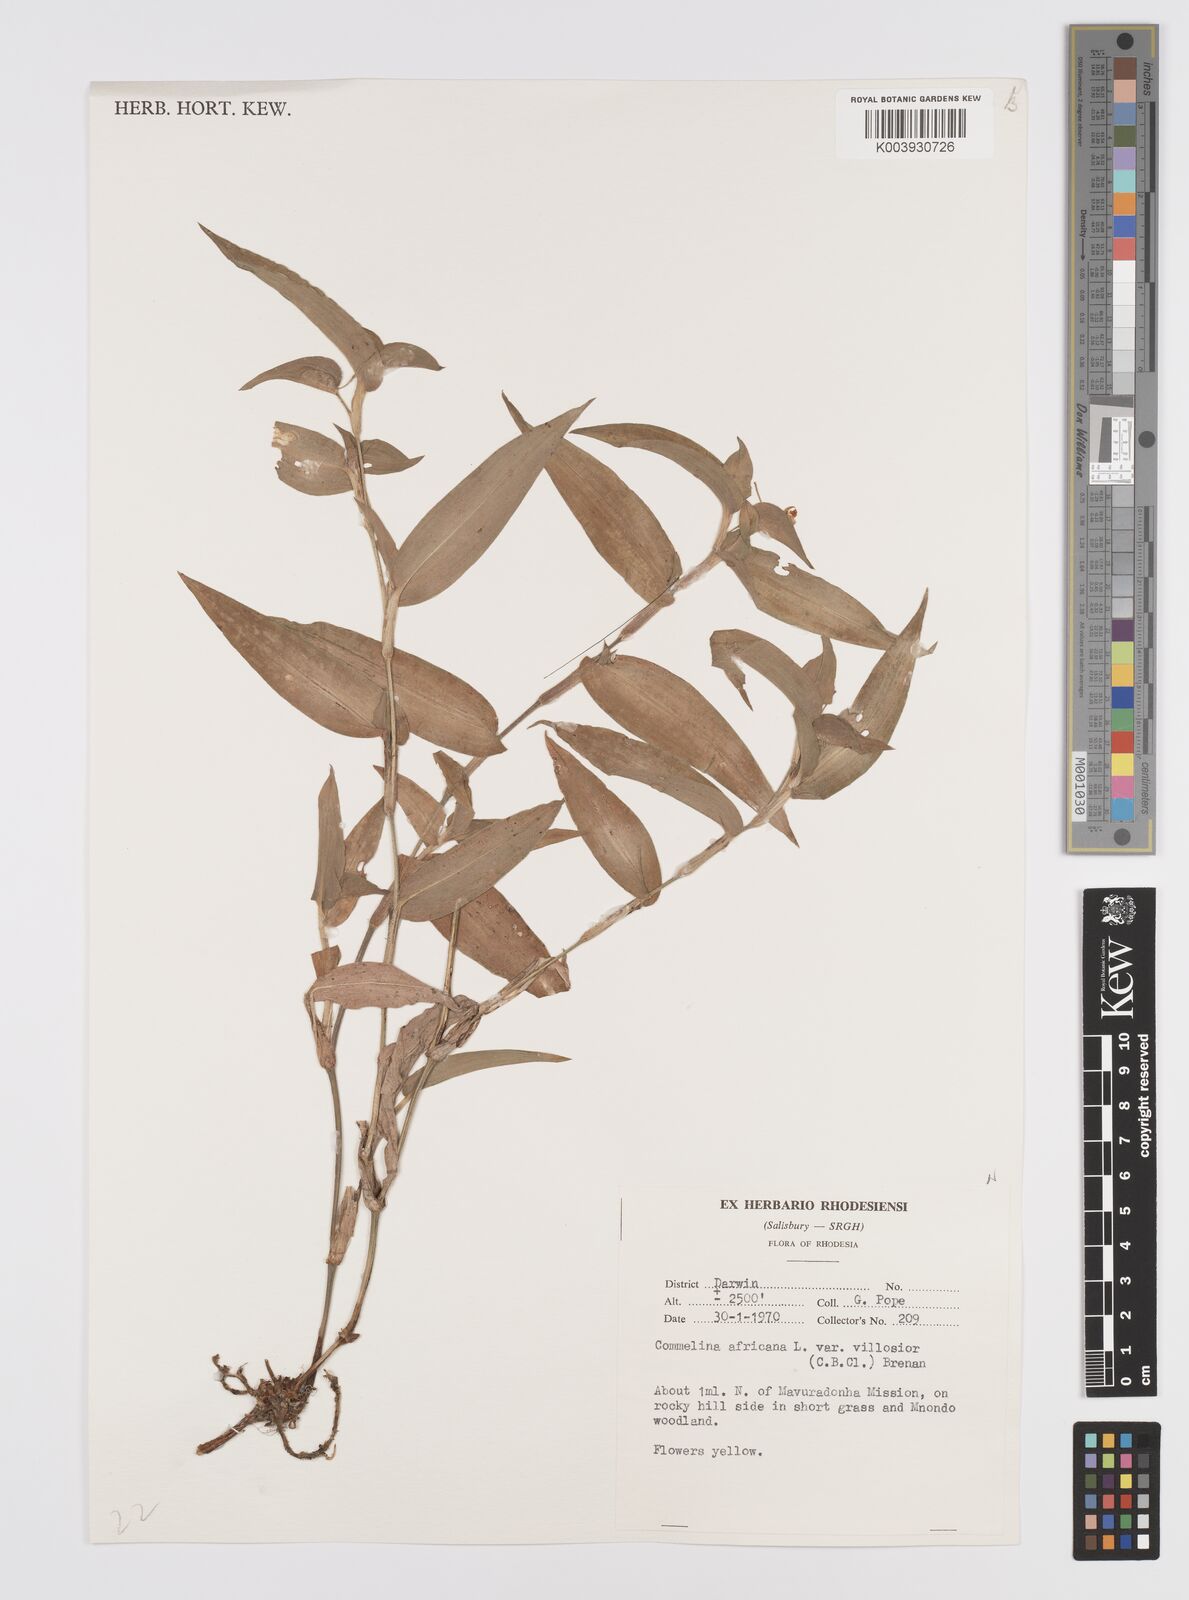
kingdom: Plantae
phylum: Tracheophyta
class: Liliopsida
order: Commelinales
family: Commelinaceae
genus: Commelina
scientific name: Commelina africana
